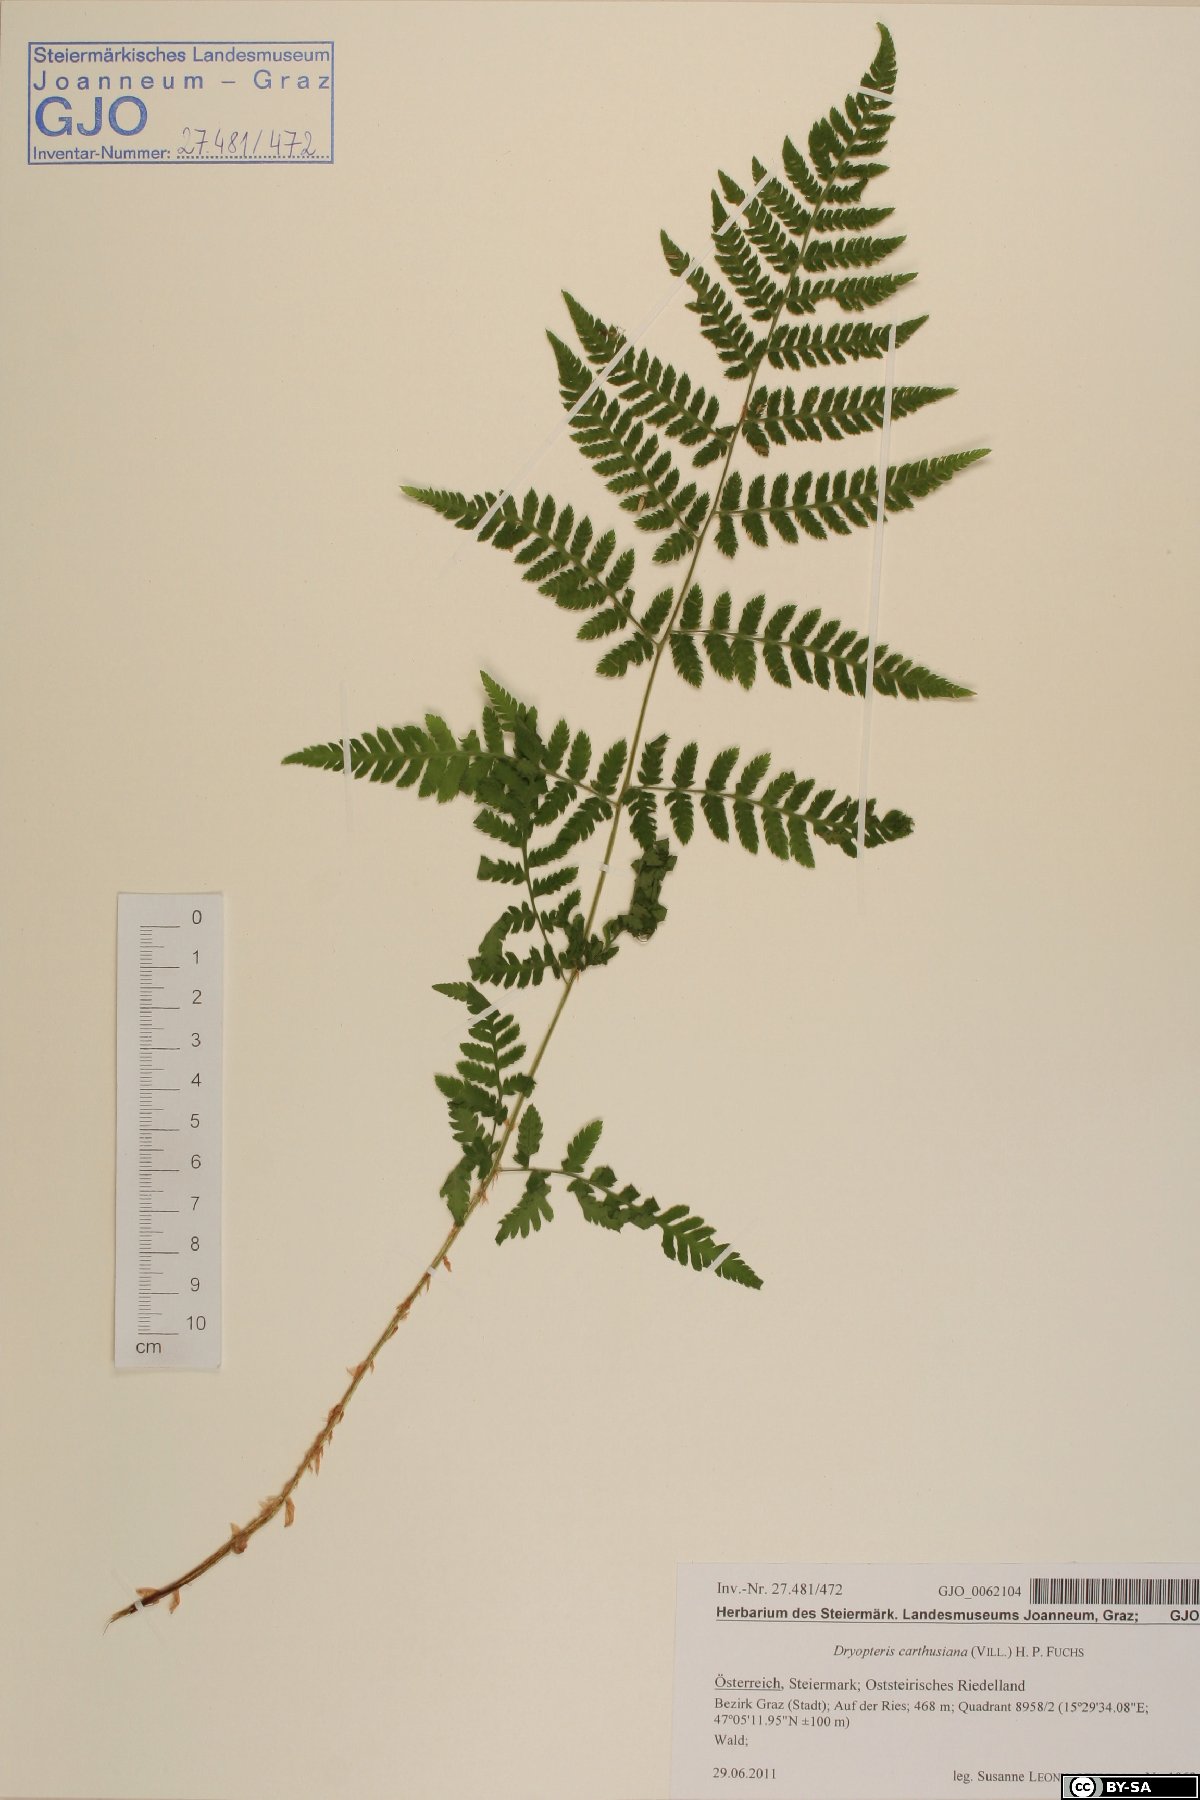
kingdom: Plantae
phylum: Tracheophyta
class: Polypodiopsida
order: Polypodiales
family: Dryopteridaceae
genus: Dryopteris
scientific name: Dryopteris carthusiana
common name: Narrow buckler-fern
